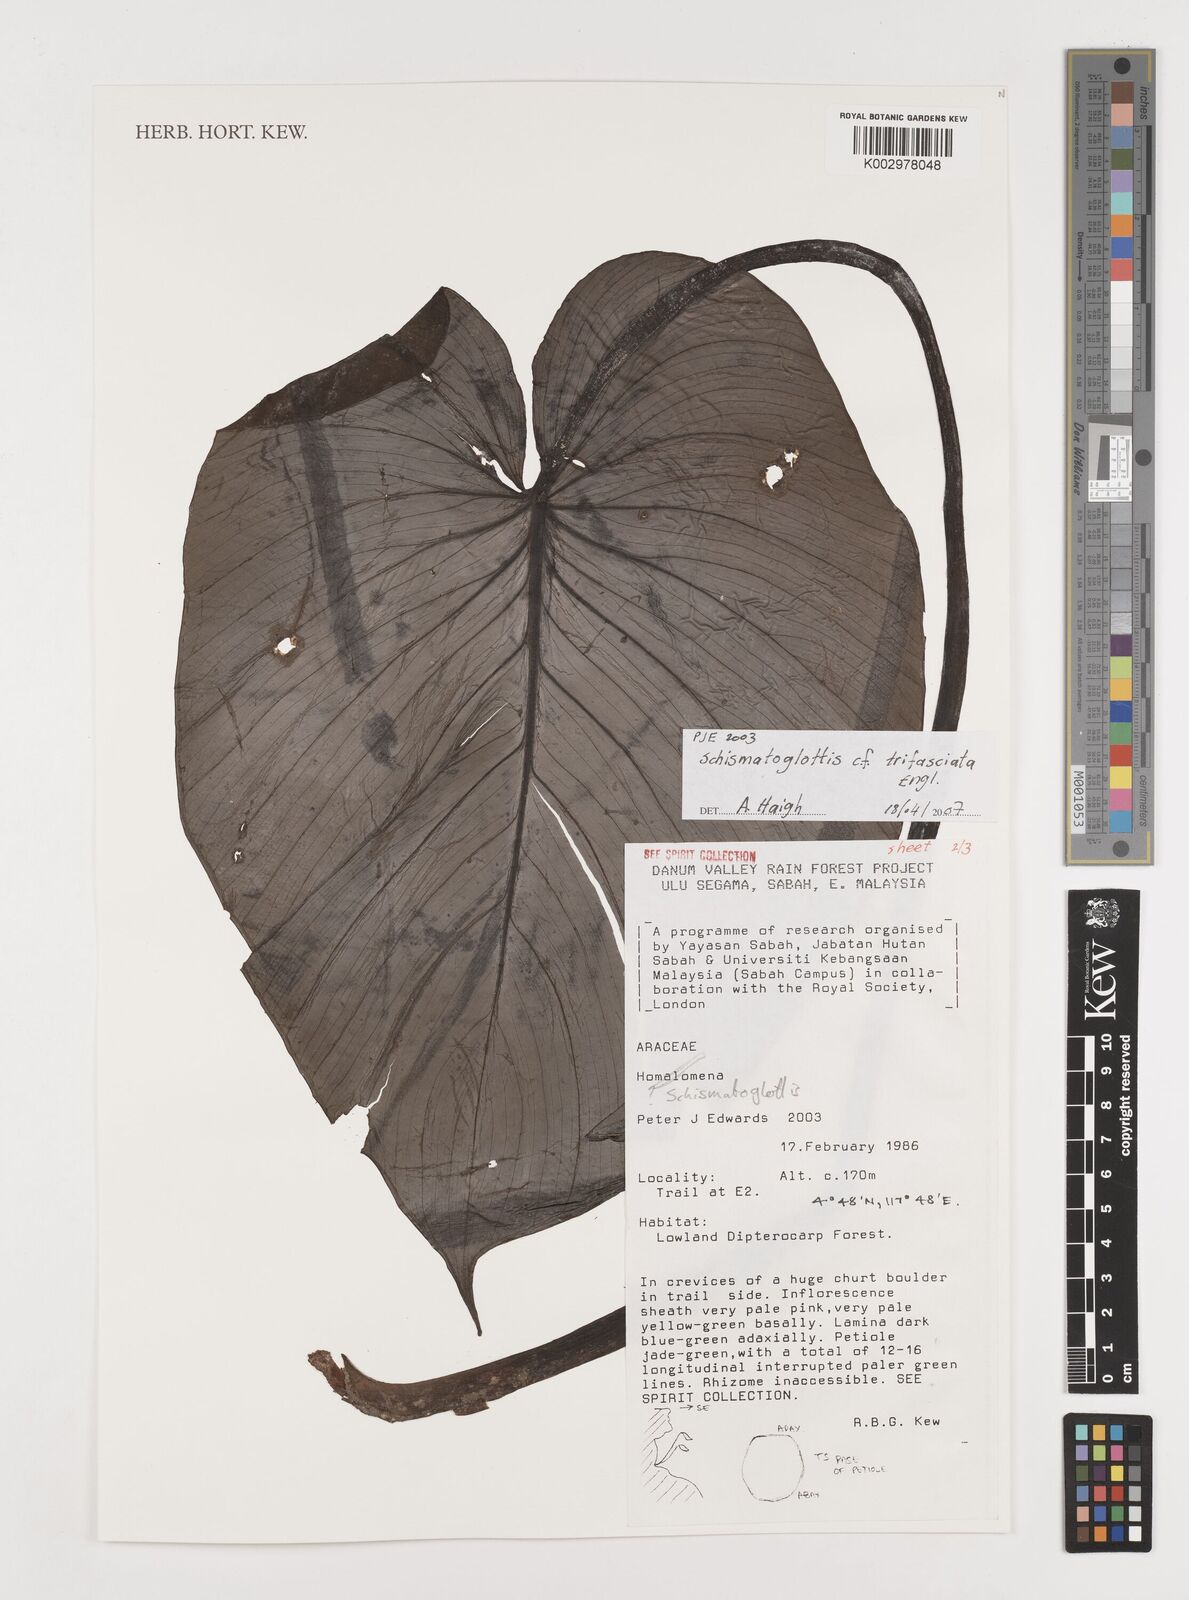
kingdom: Plantae
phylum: Tracheophyta
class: Liliopsida
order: Alismatales
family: Araceae
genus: Schismatoglottis
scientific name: Schismatoglottis trifasciata
